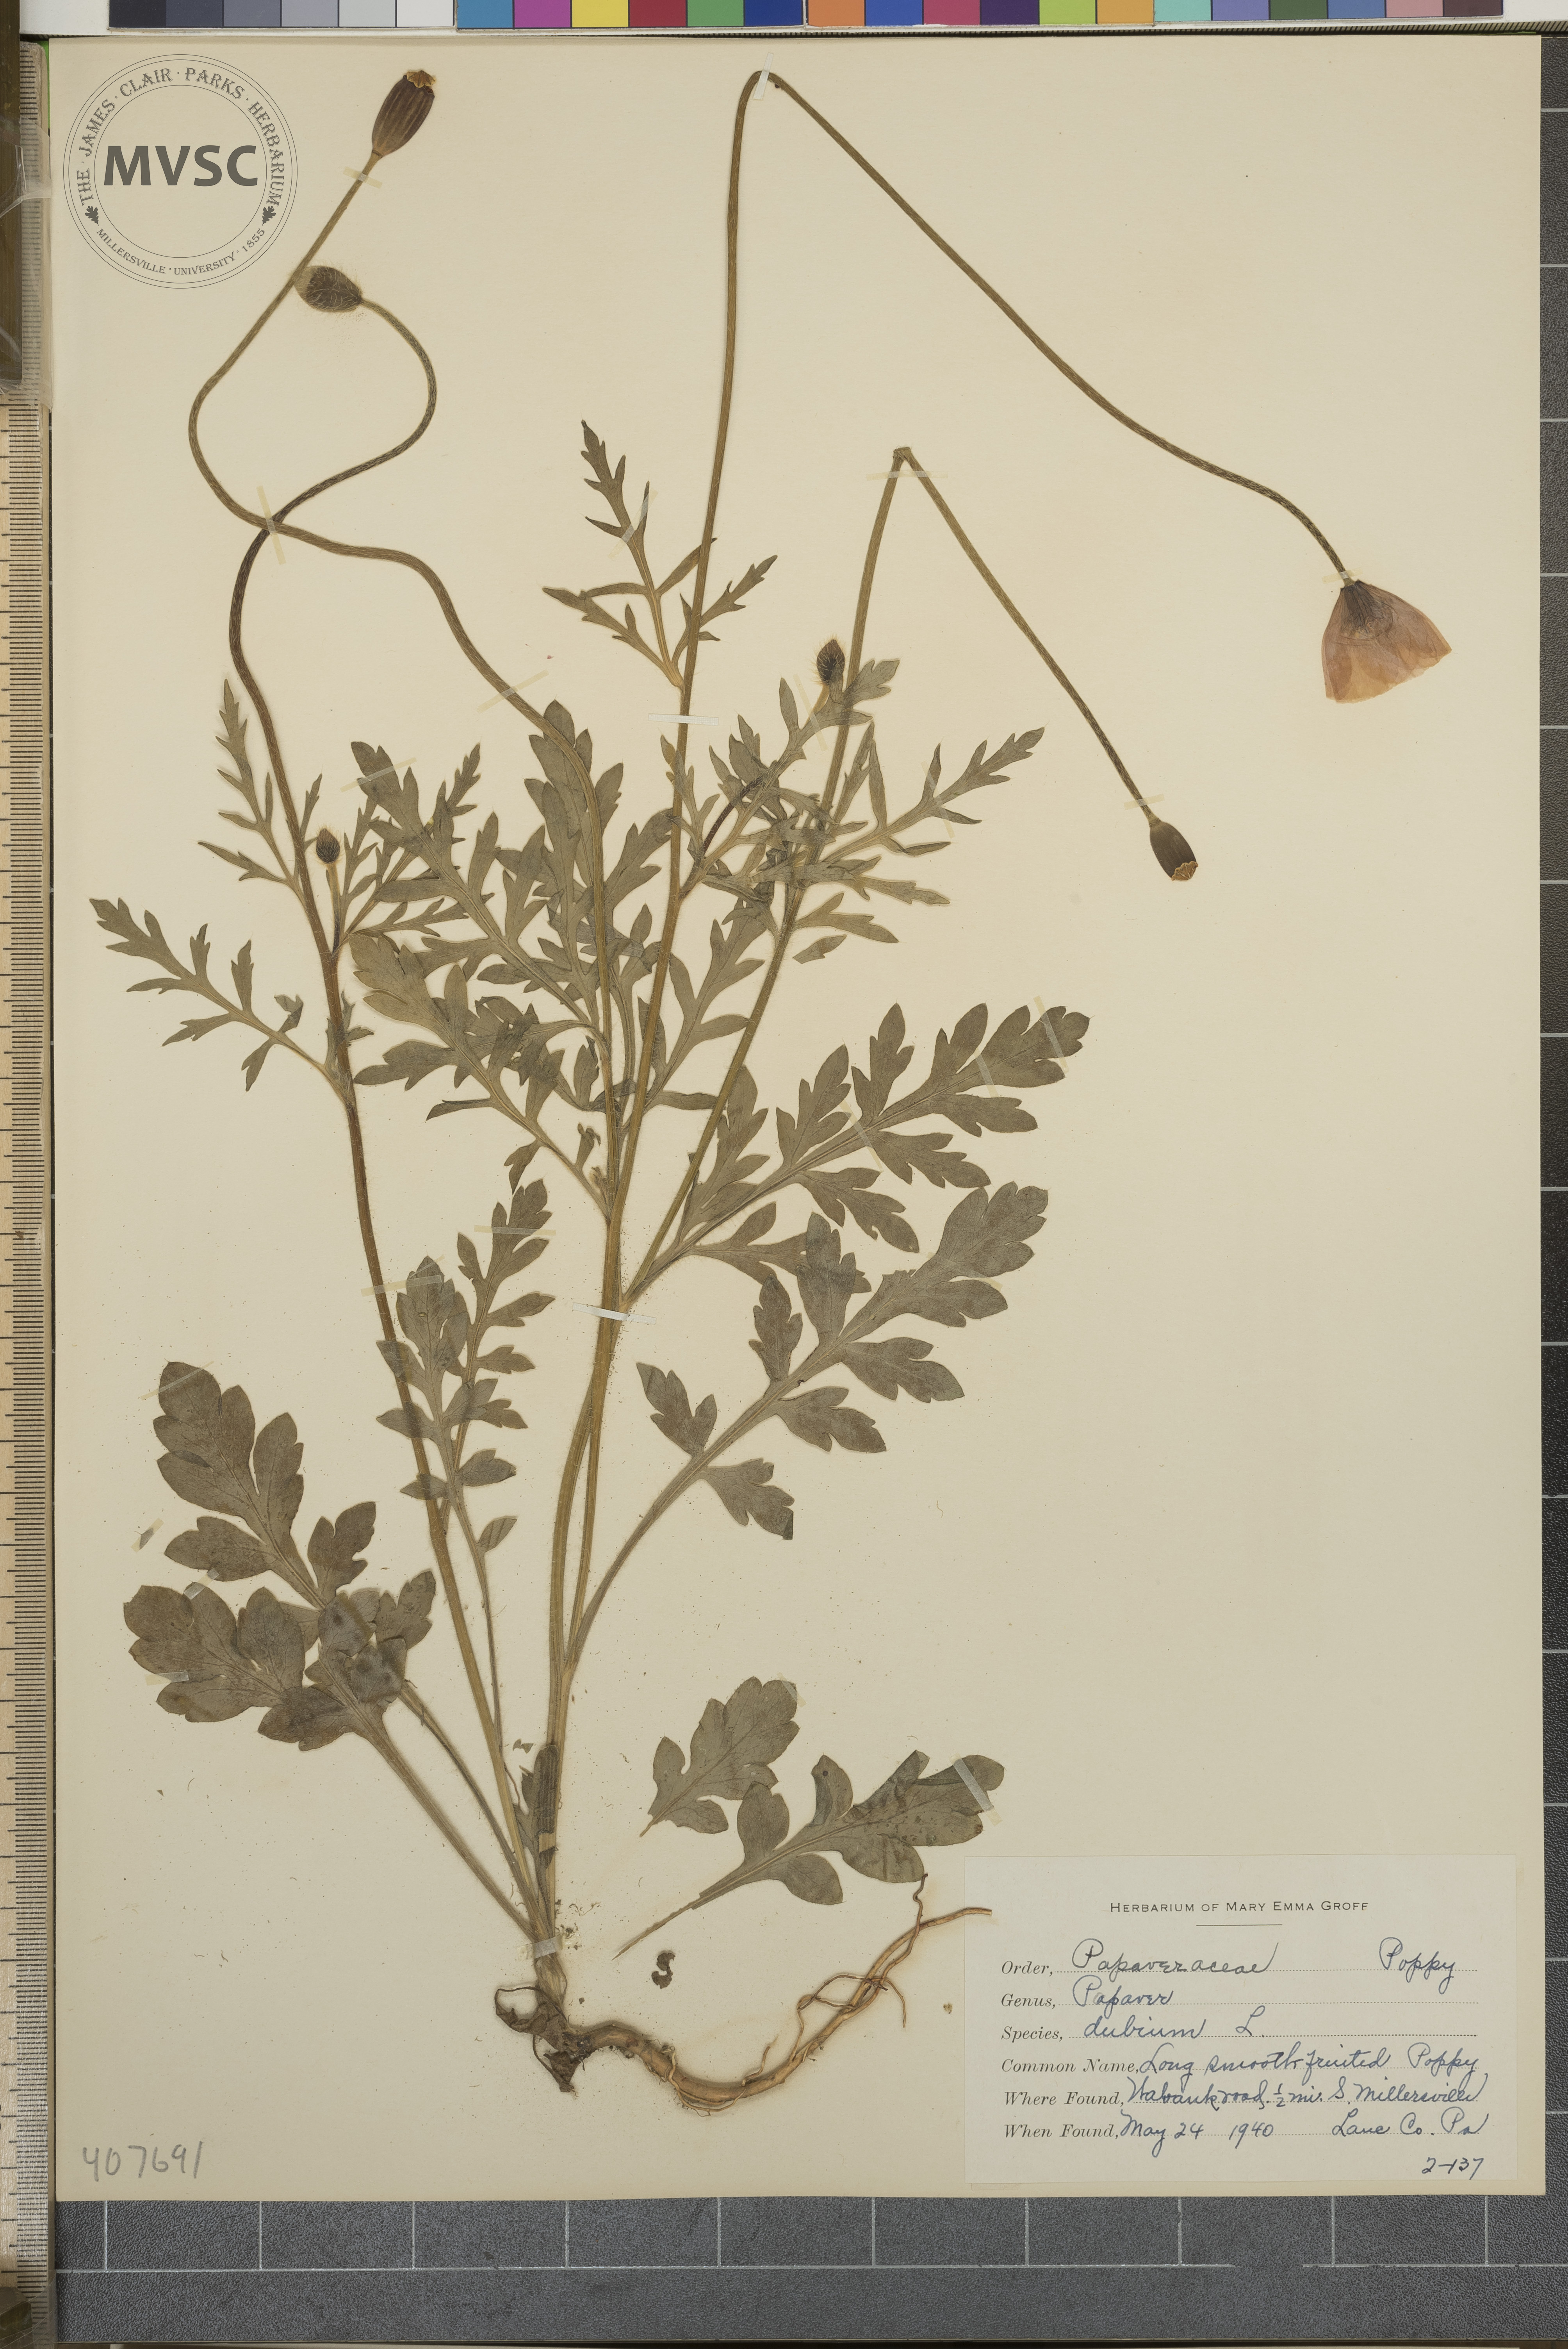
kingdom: Plantae
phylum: Tracheophyta
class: Magnoliopsida
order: Ranunculales
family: Papaveraceae
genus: Papaver
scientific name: Papaver dubium
